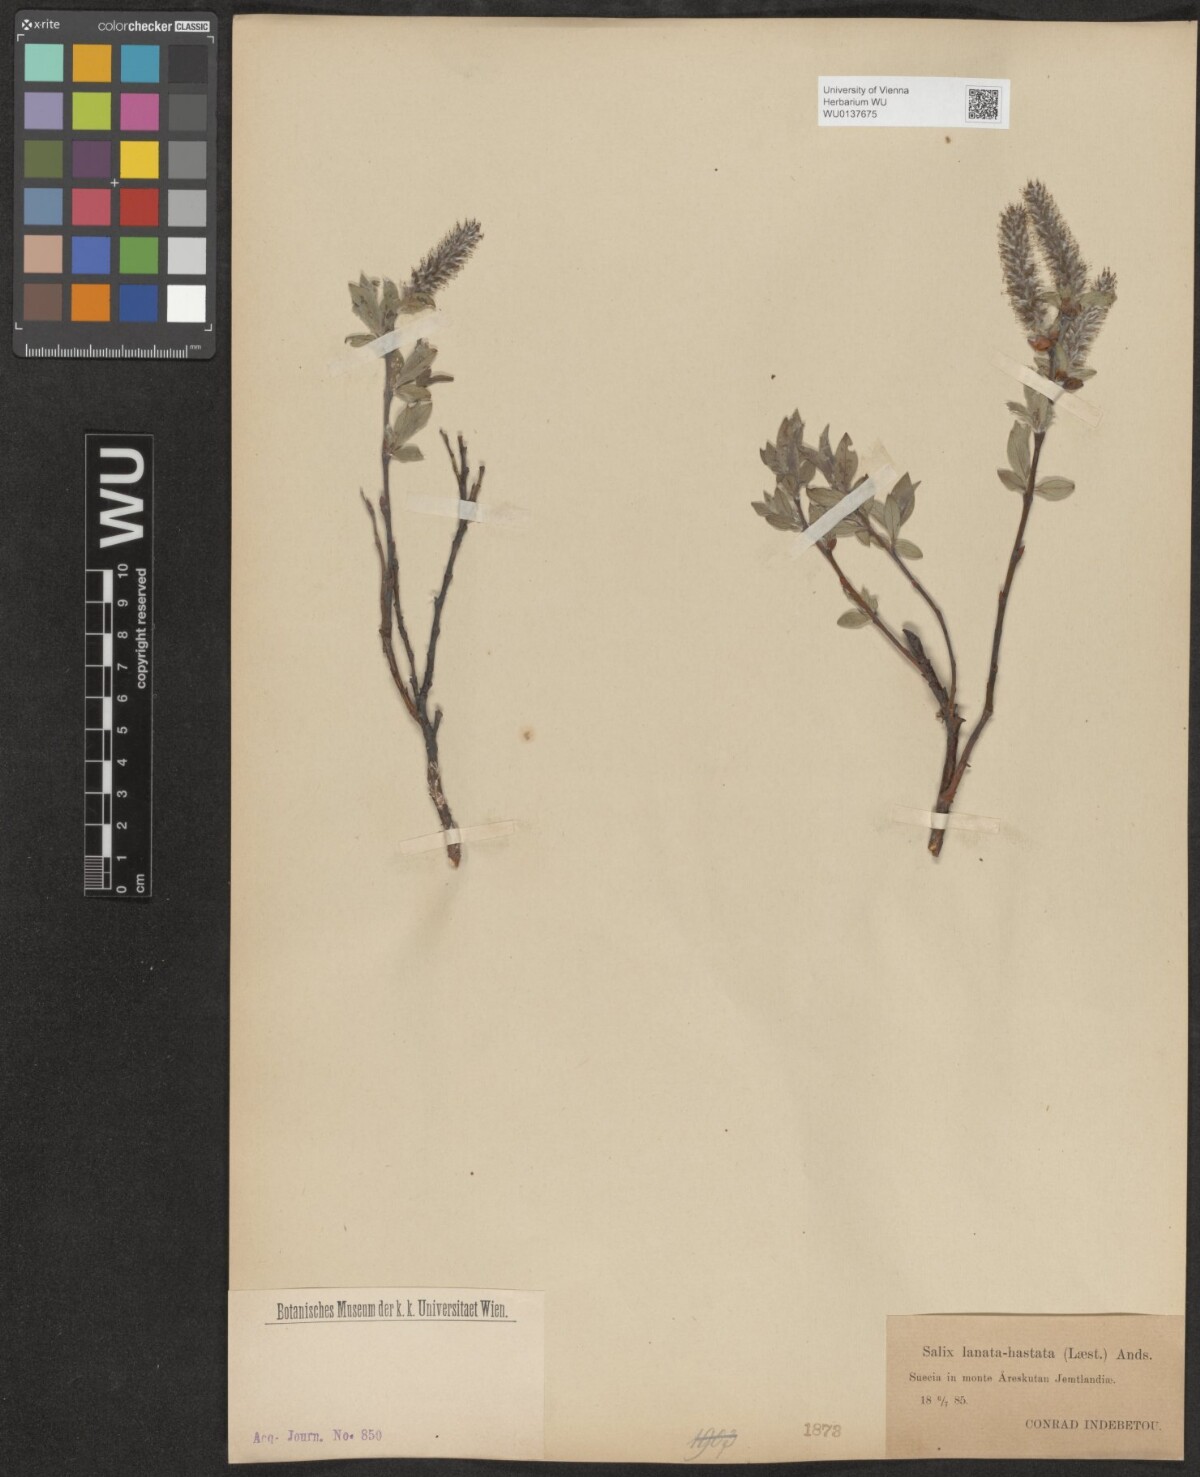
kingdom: Plantae
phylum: Tracheophyta
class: Magnoliopsida
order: Malpighiales
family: Salicaceae
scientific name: Salicaceae
